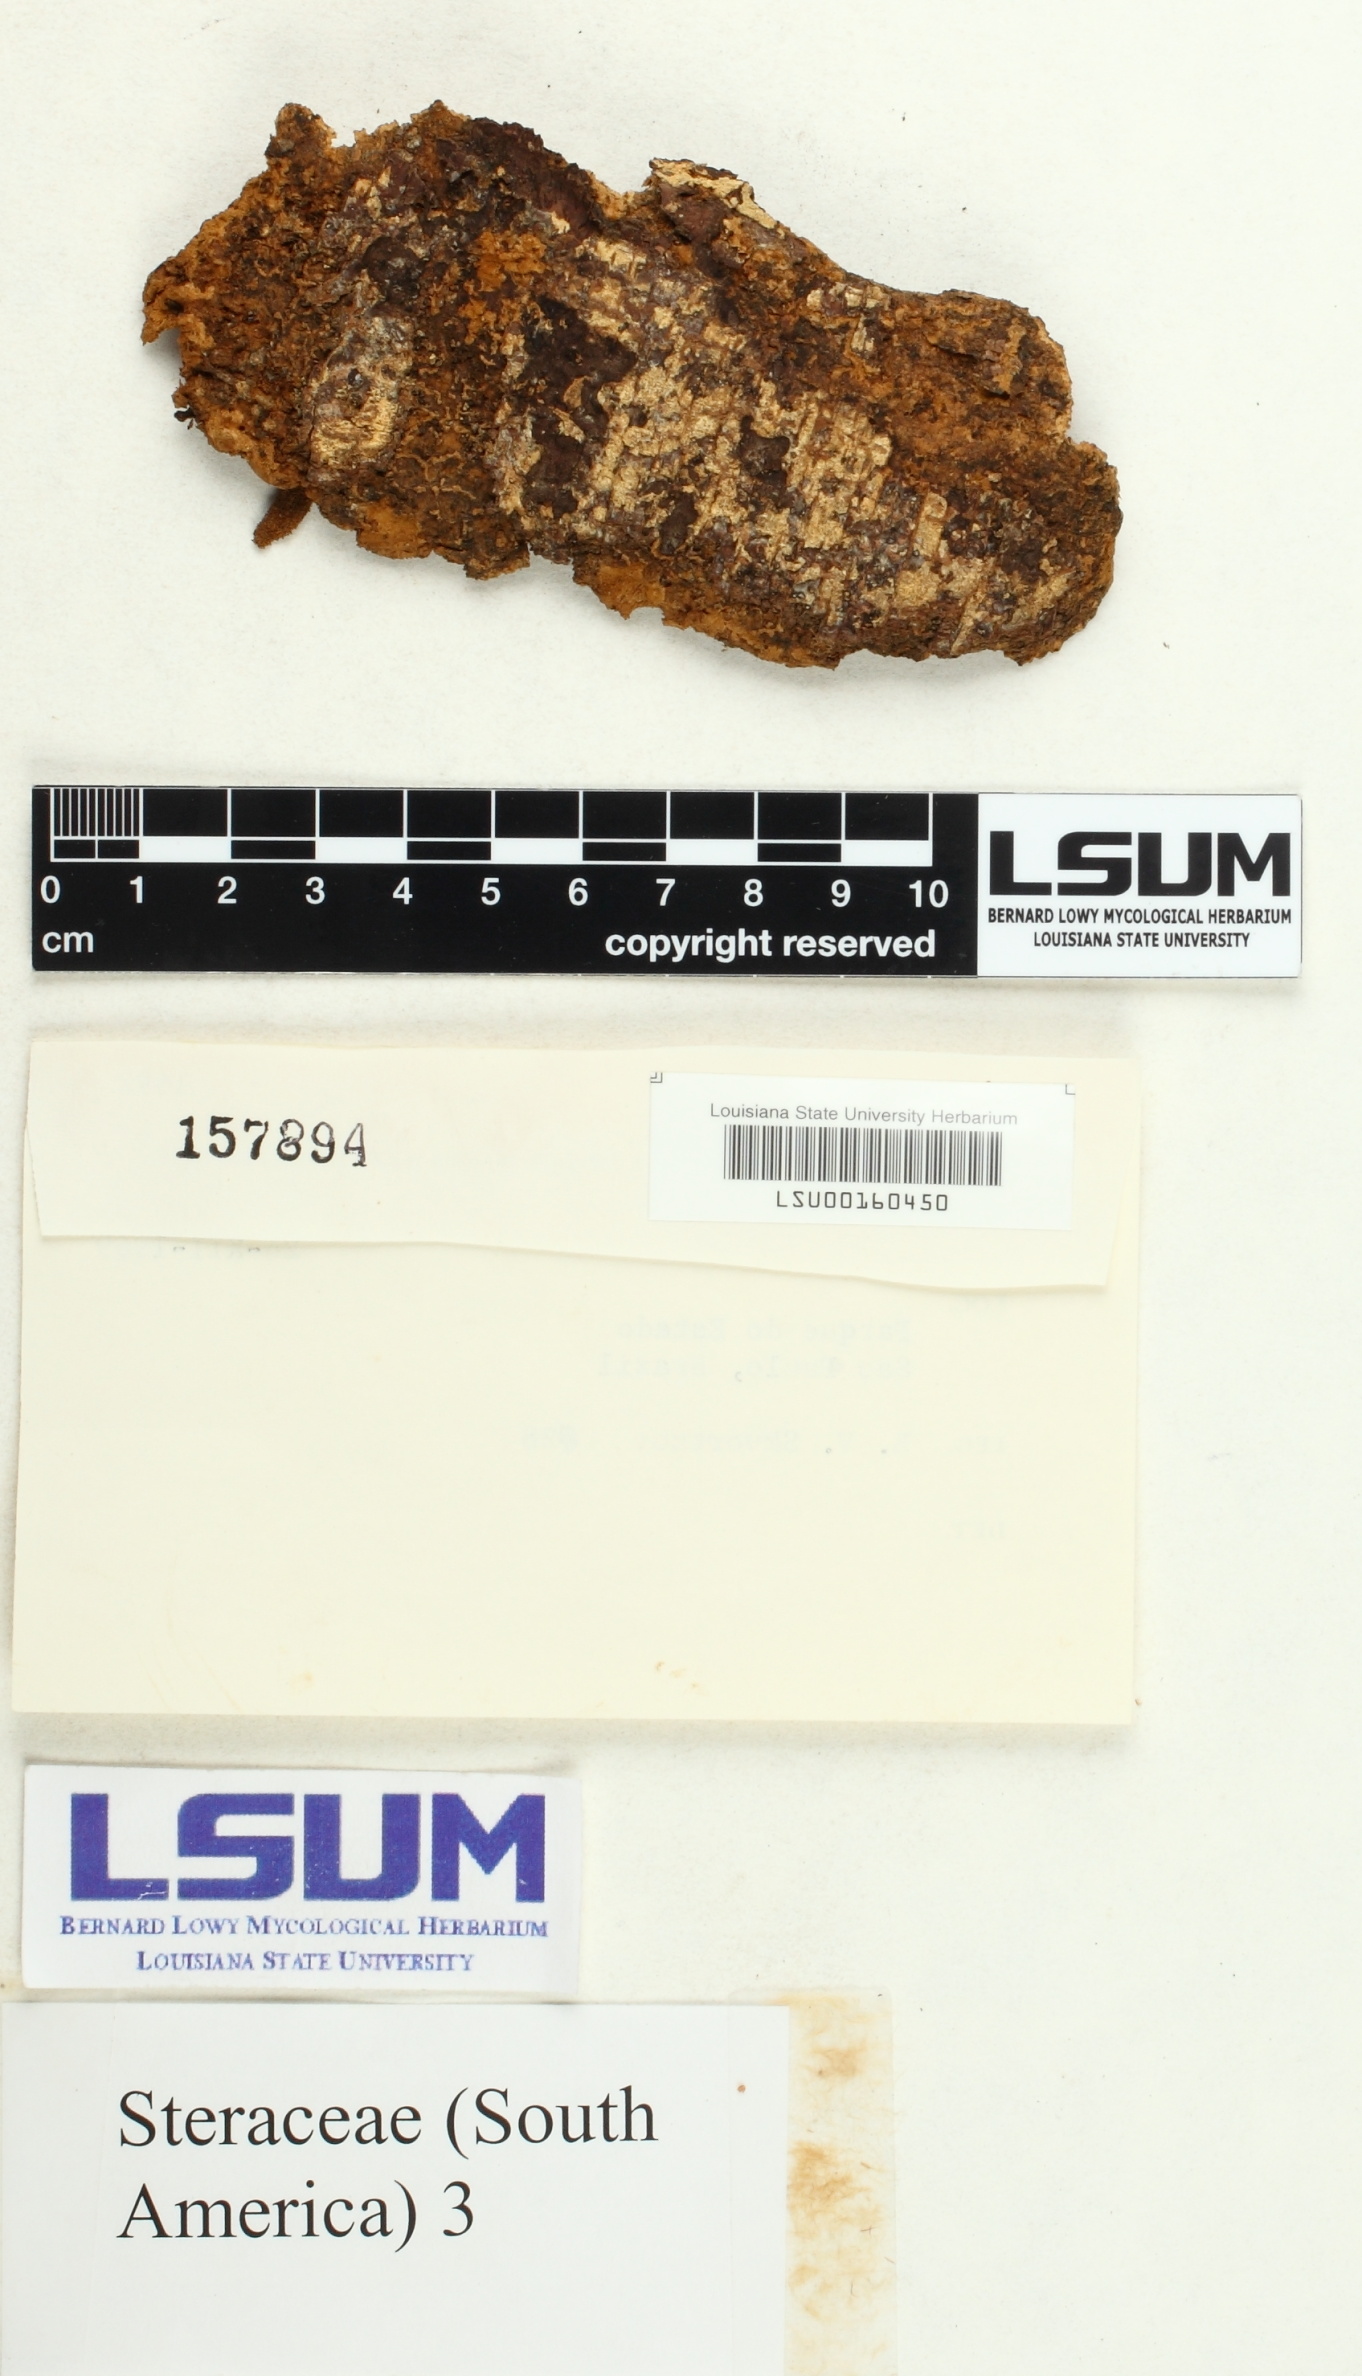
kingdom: Fungi
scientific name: Fungi
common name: Fungi
